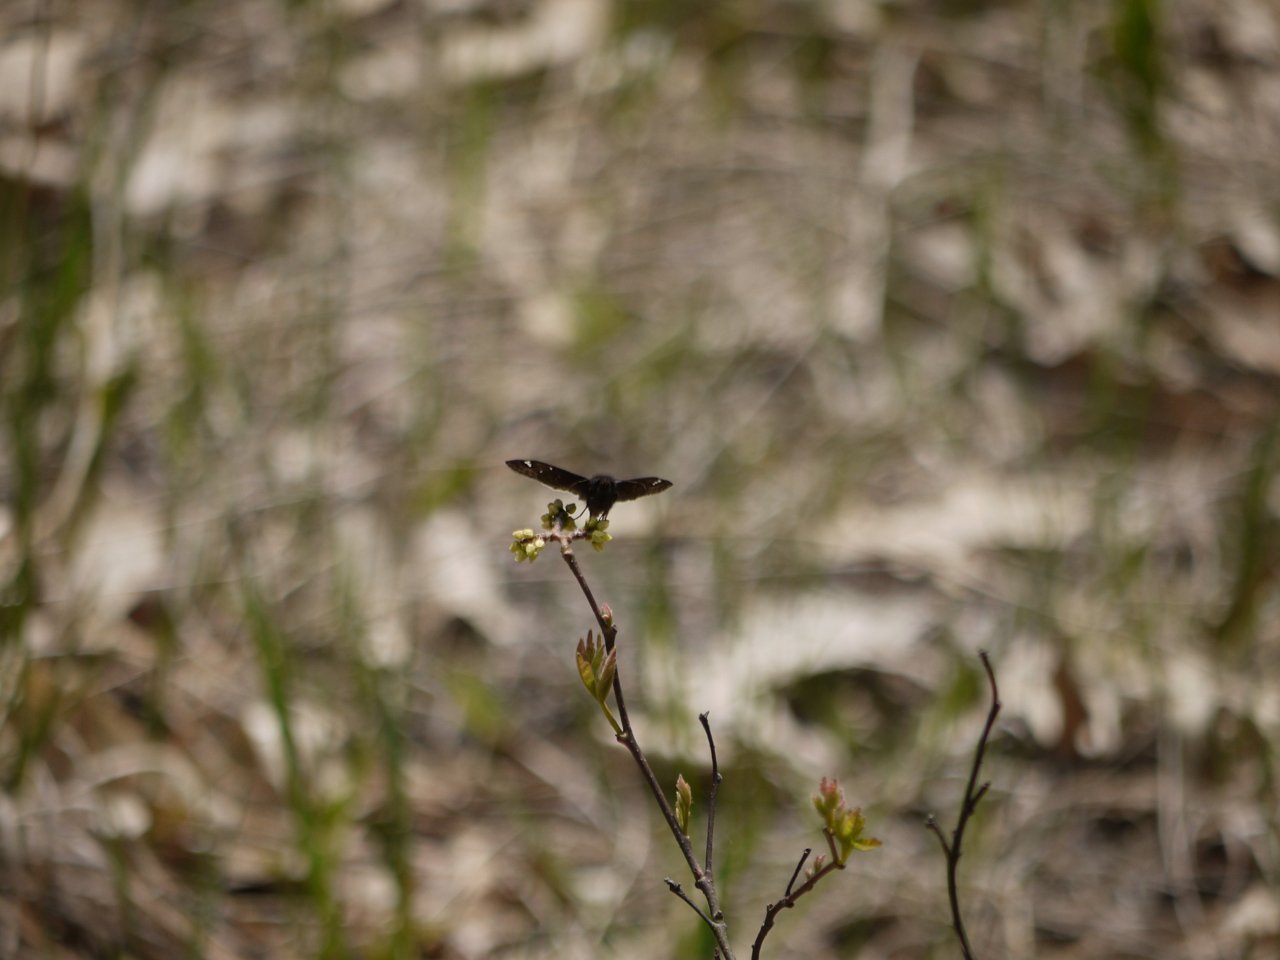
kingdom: Animalia
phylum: Arthropoda
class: Insecta
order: Lepidoptera
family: Hesperiidae
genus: Pholisora
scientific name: Pholisora catullus
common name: Common Sootywing
